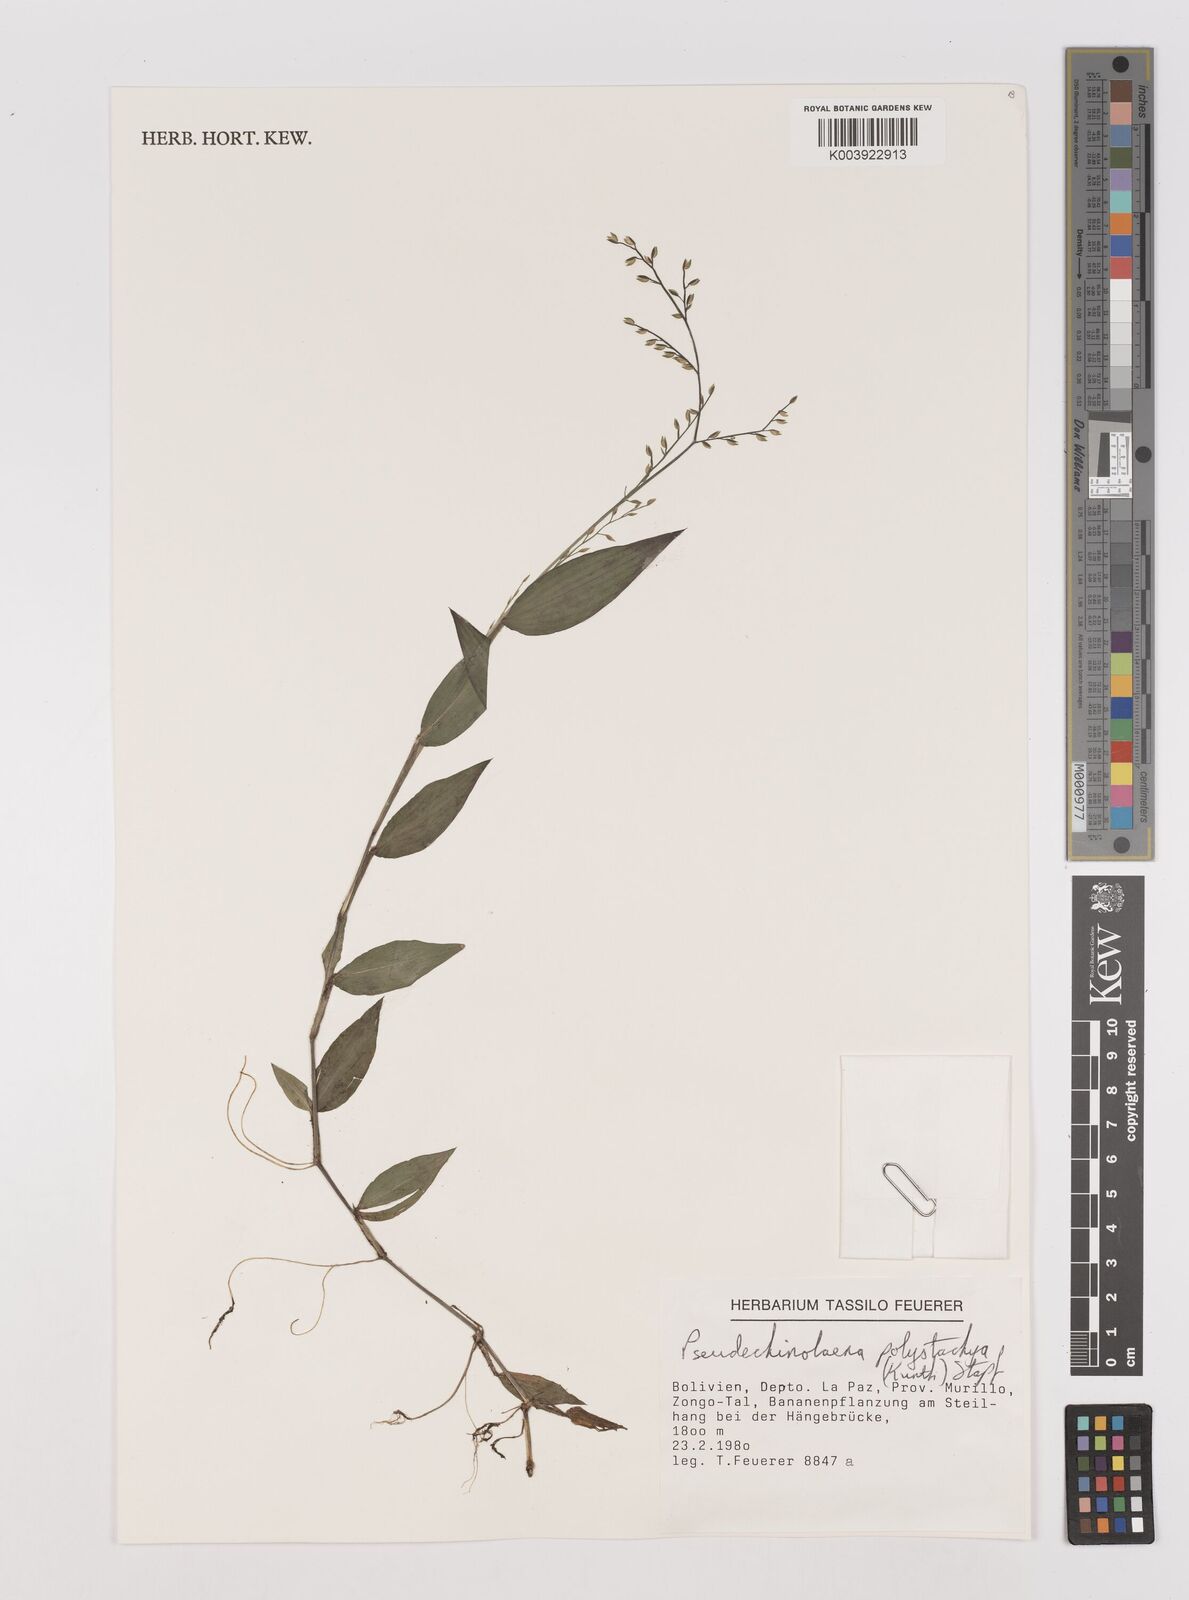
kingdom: Plantae
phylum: Tracheophyta
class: Liliopsida
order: Poales
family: Poaceae
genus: Pseudechinolaena
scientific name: Pseudechinolaena polystachya
